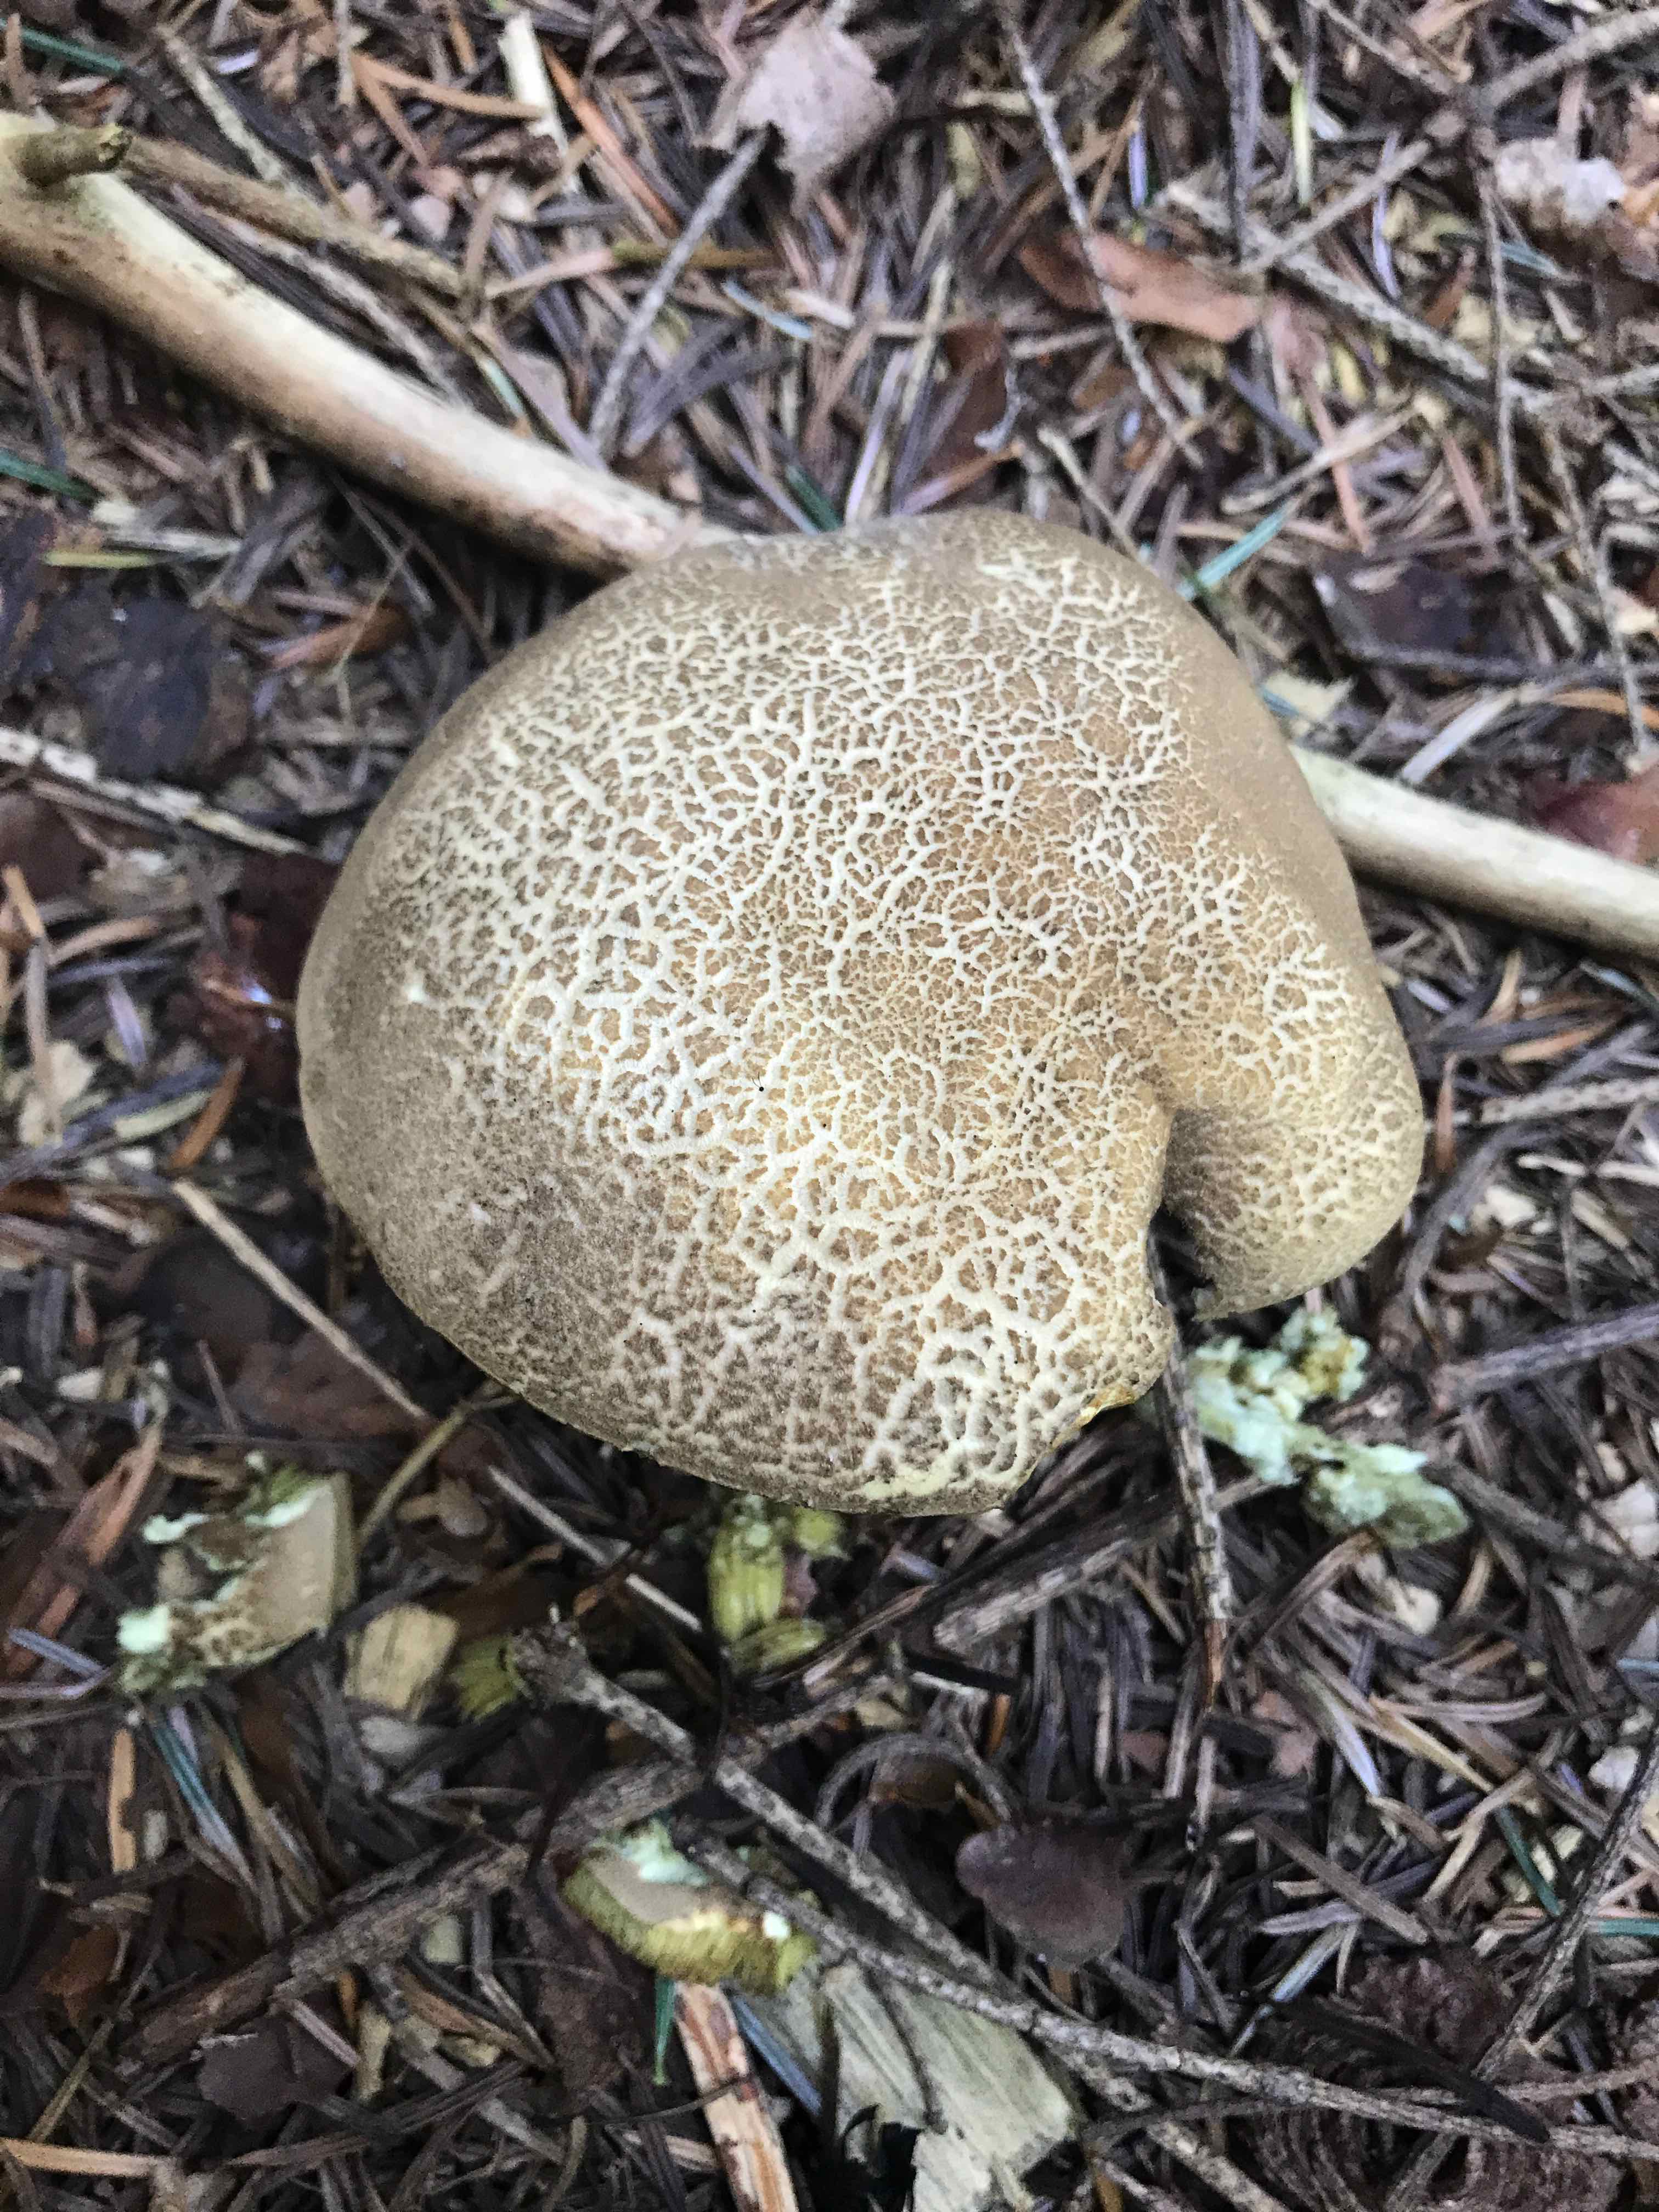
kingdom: Fungi
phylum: Basidiomycota
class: Agaricomycetes
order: Boletales
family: Boletaceae
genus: Xerocomellus
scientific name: Xerocomellus porosporus
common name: hvidsprukken rørhat
